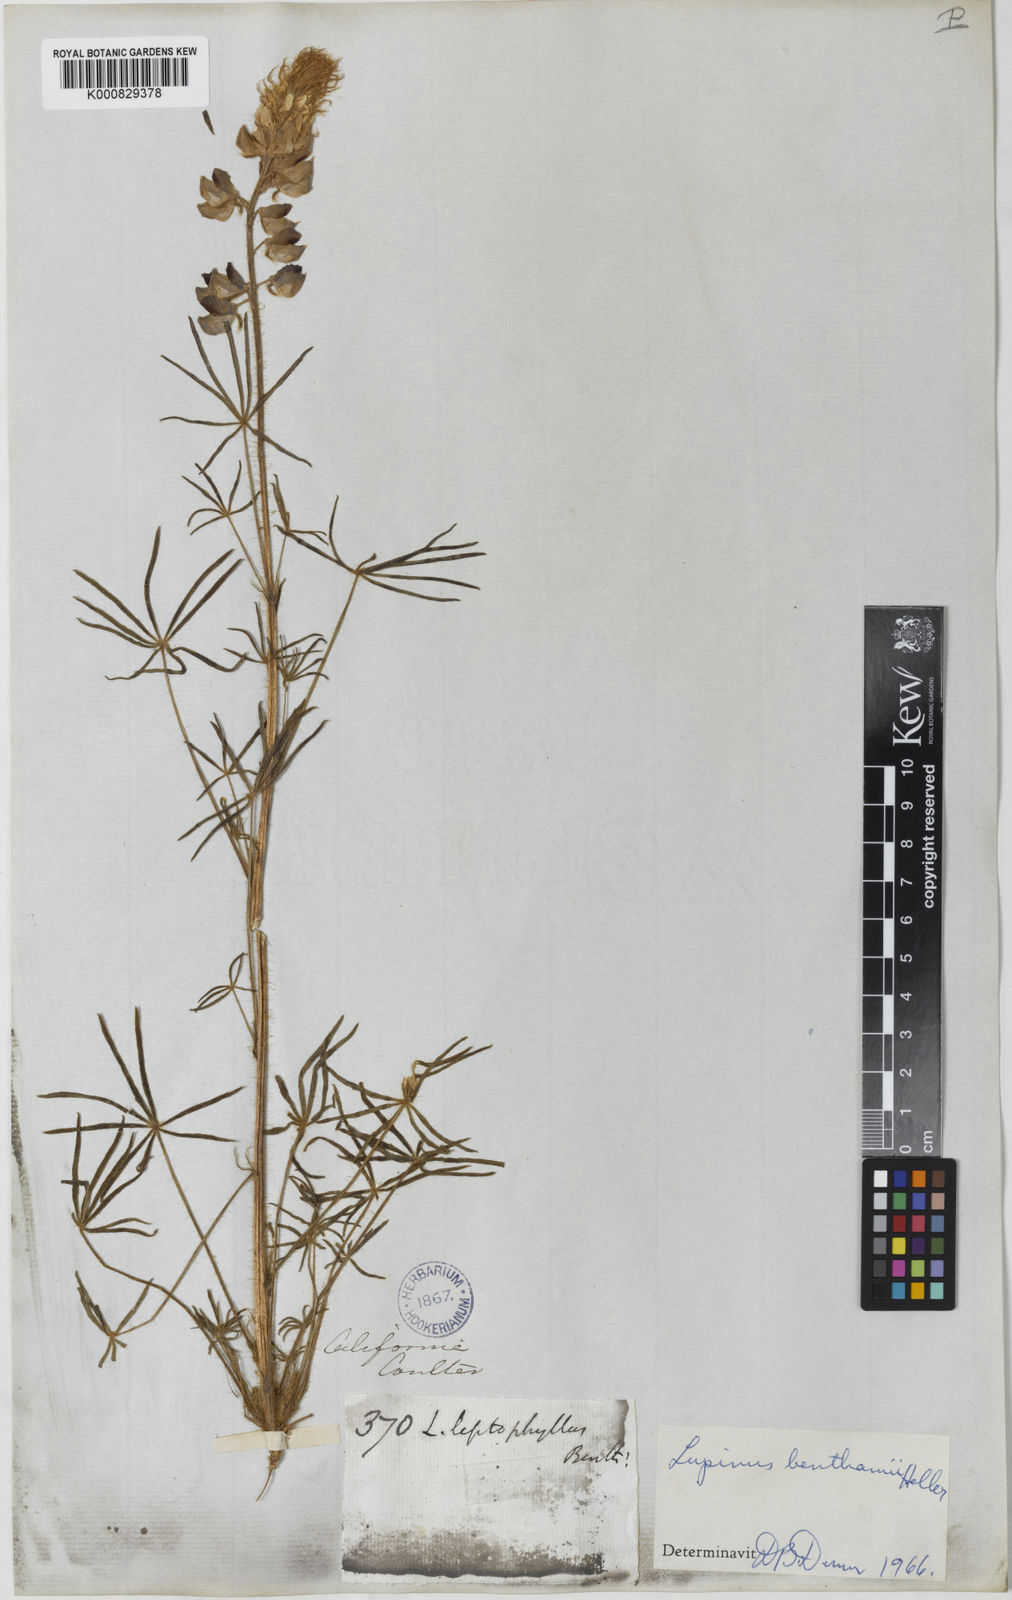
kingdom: Plantae
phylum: Tracheophyta
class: Magnoliopsida
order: Fabales
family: Fabaceae
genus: Lupinus
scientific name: Lupinus benthamii
